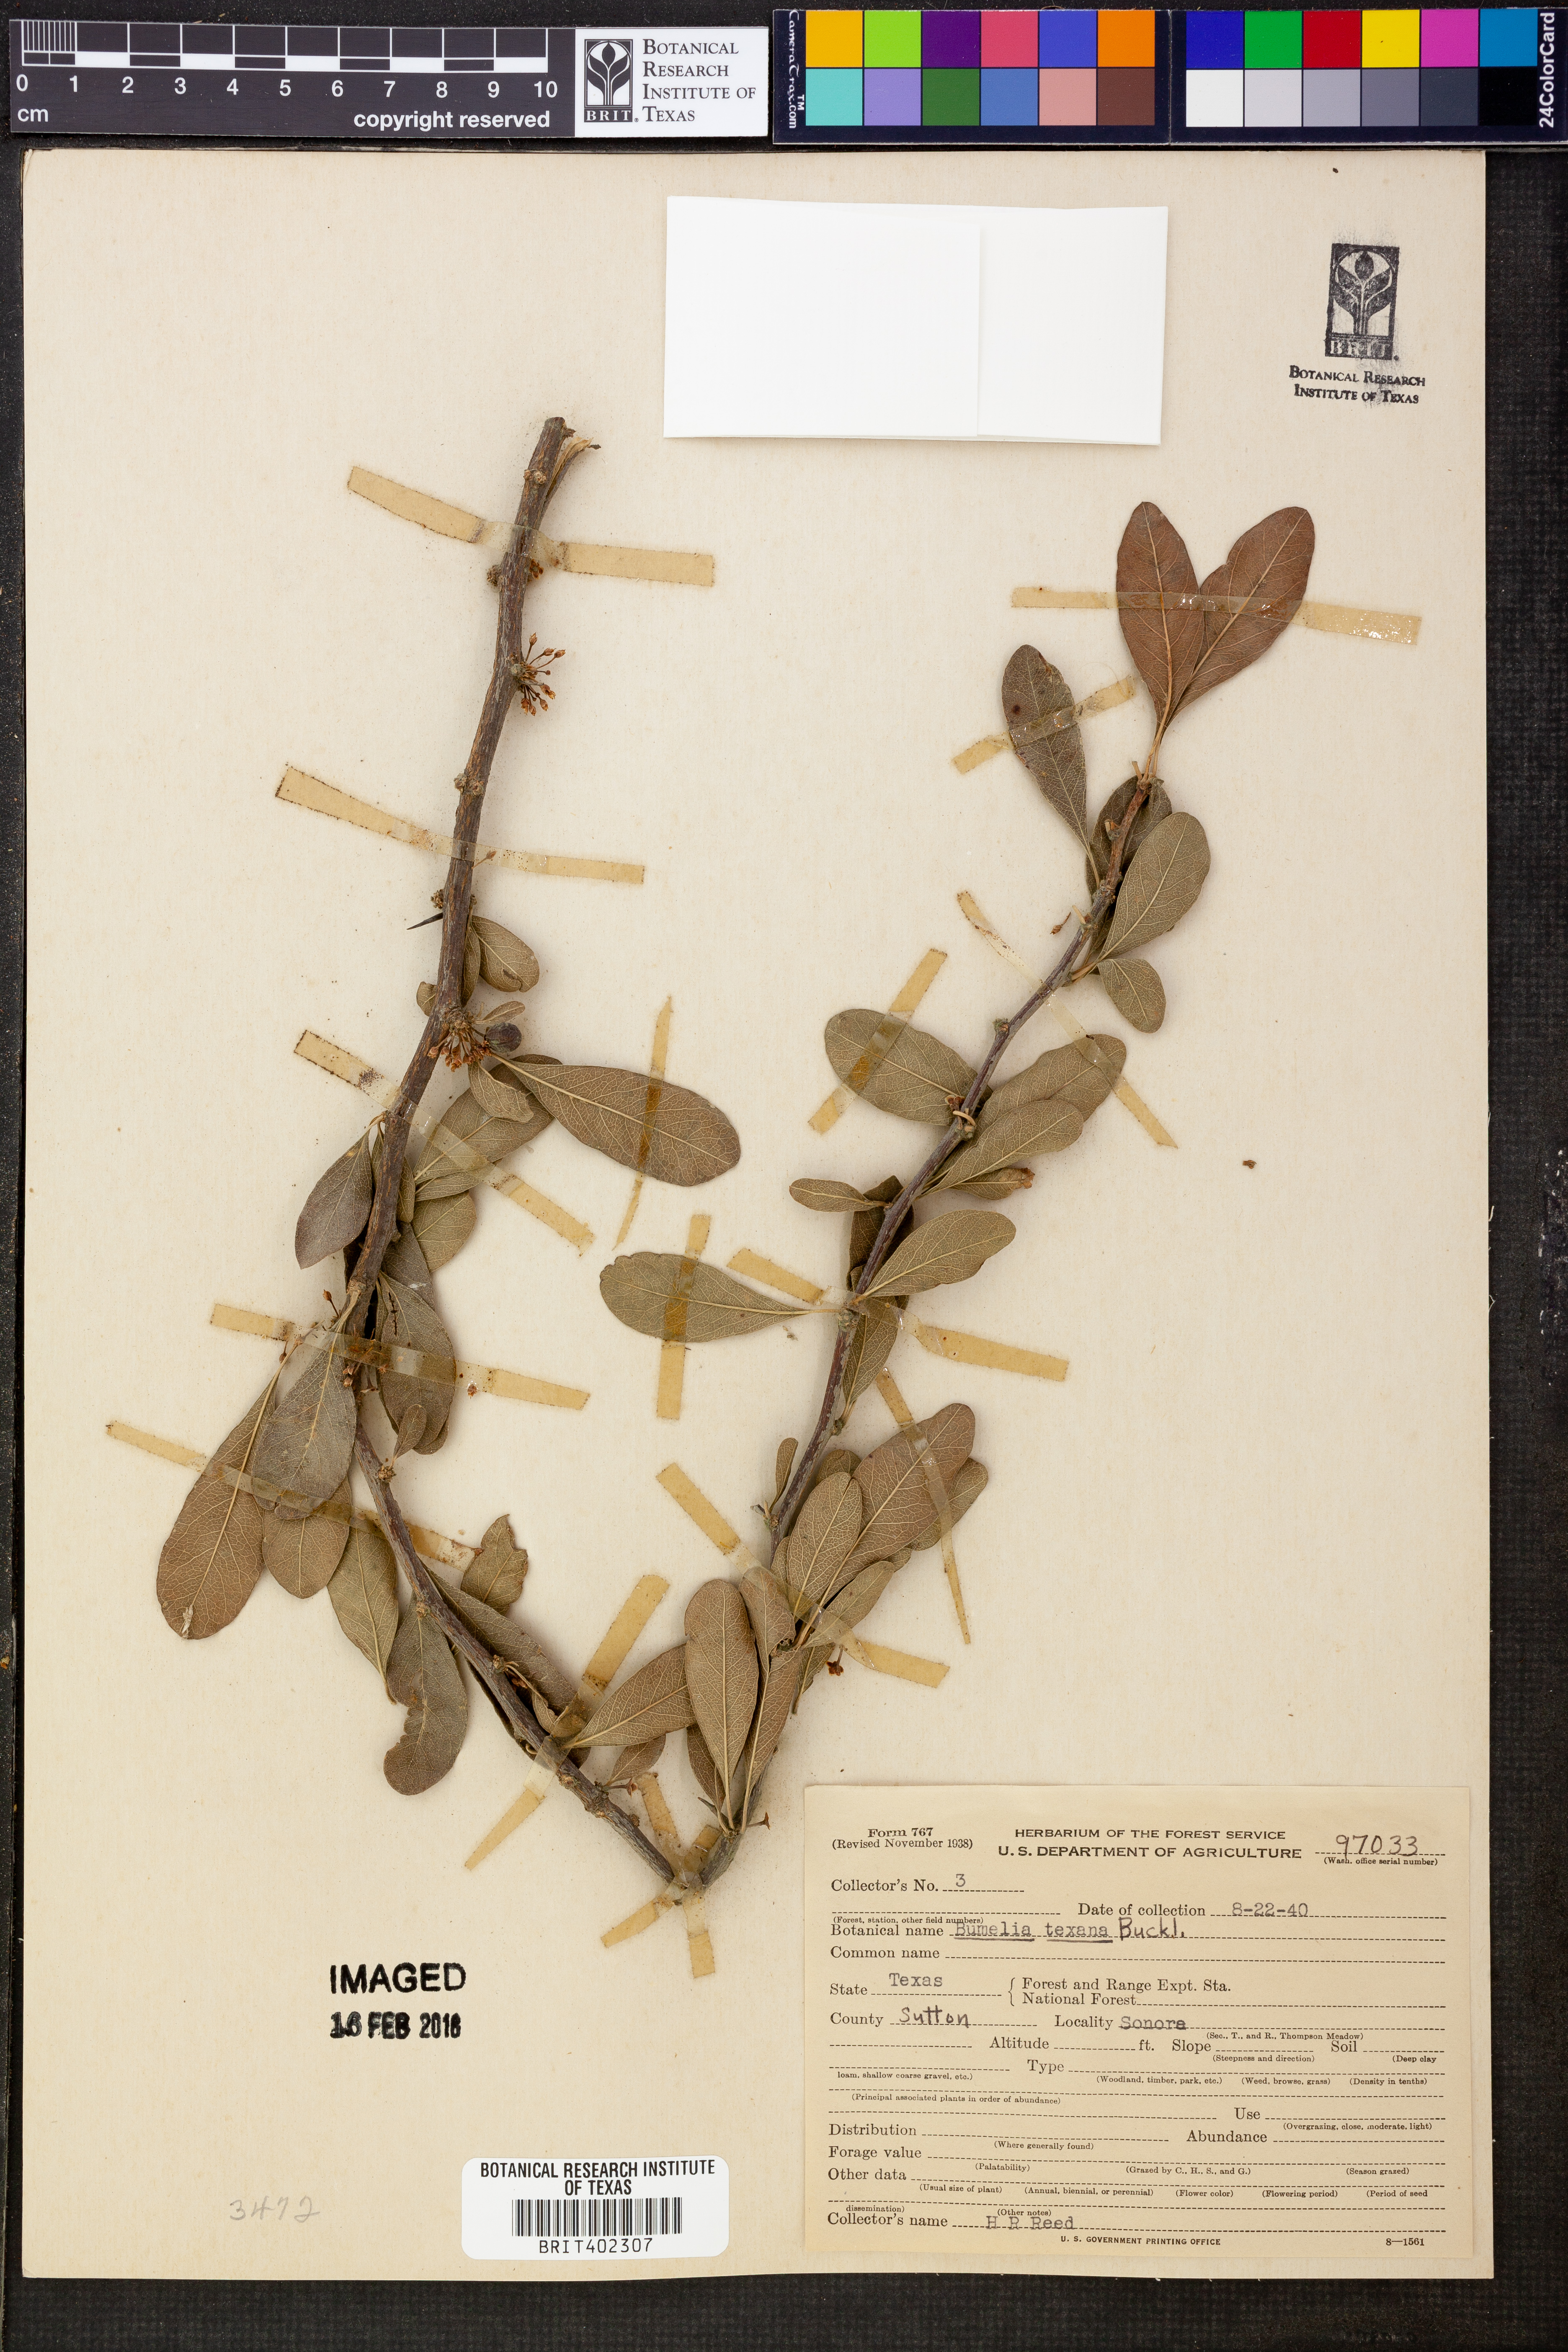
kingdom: Plantae
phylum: Tracheophyta
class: Magnoliopsida
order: Ericales
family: Sapotaceae
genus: Sideroxylon
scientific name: Sideroxylon lanuginosum
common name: Chittamwood
